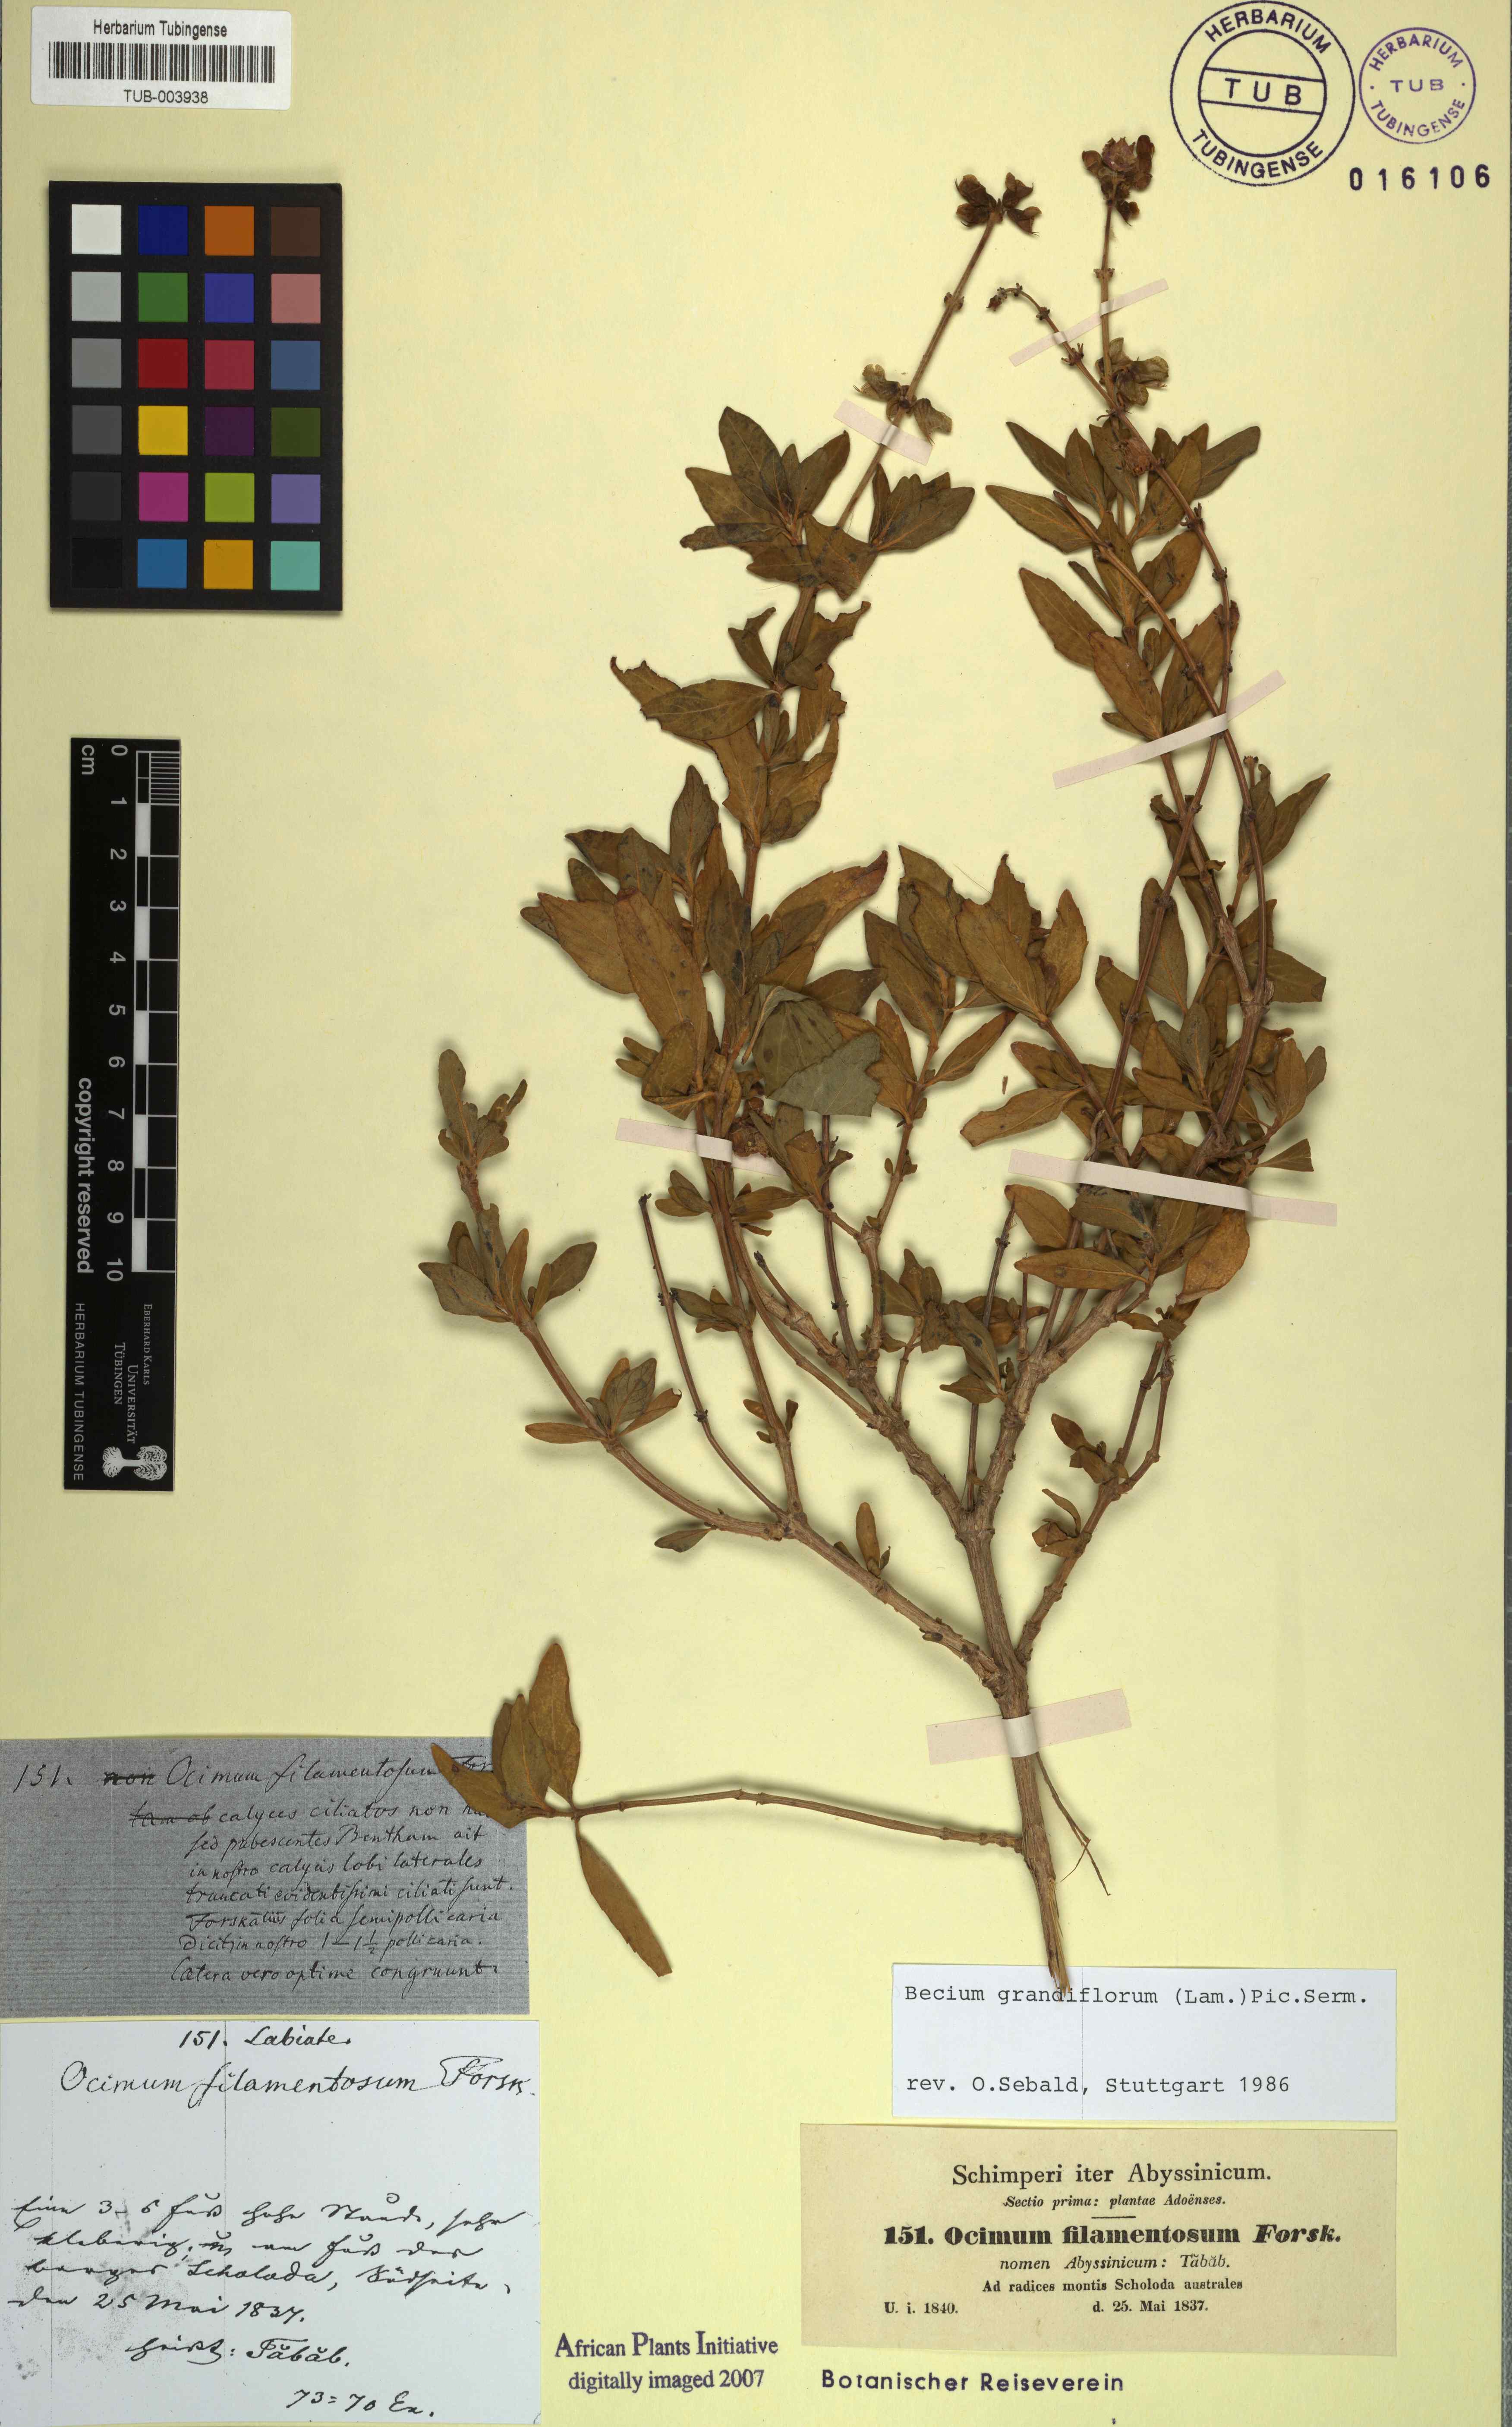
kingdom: Plantae
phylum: Tracheophyta
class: Magnoliopsida
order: Lamiales
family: Lamiaceae
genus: Ocimum
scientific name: Ocimum filamentosum
